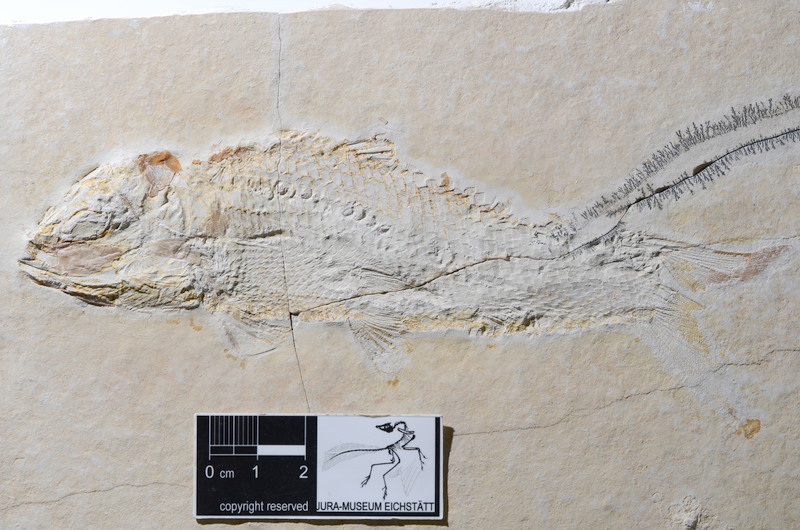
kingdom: Animalia
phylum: Chordata
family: Ankylophoridae
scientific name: Ankylophoridae
